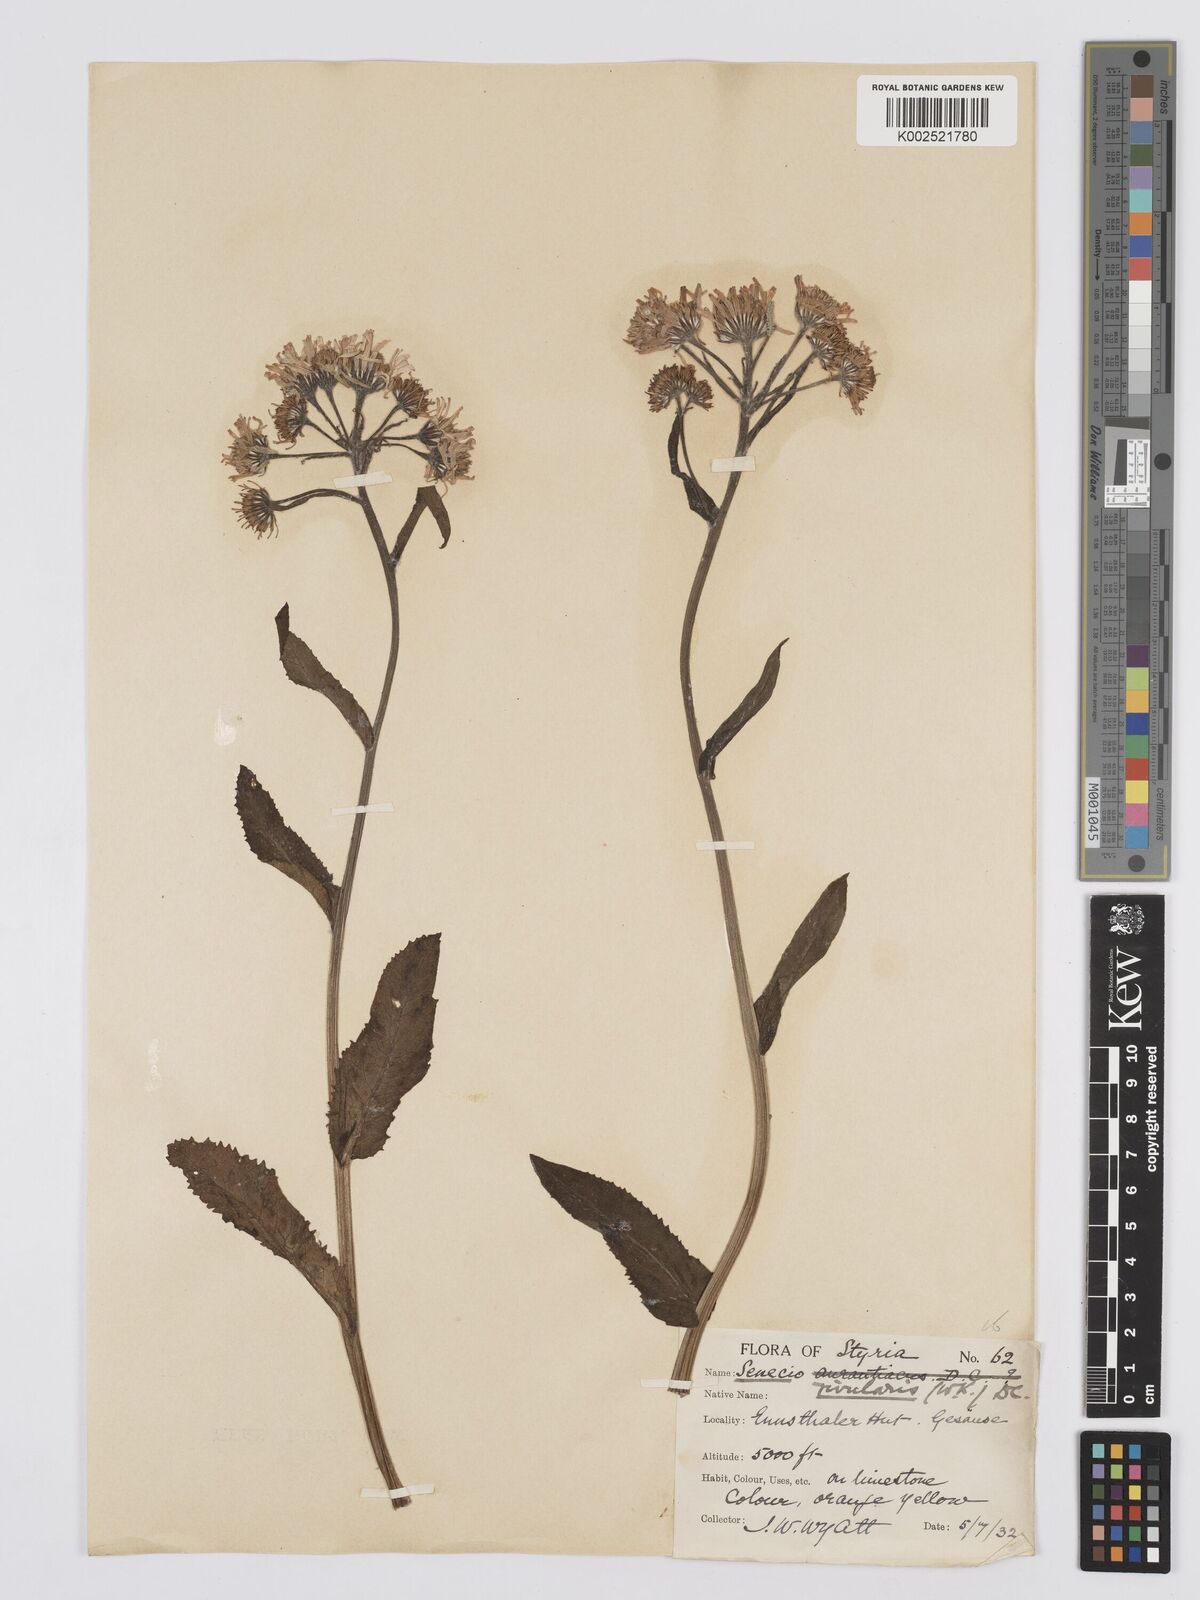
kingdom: Plantae
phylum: Tracheophyta
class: Magnoliopsida
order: Asterales
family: Asteraceae
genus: Tephroseris
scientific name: Tephroseris crispa
